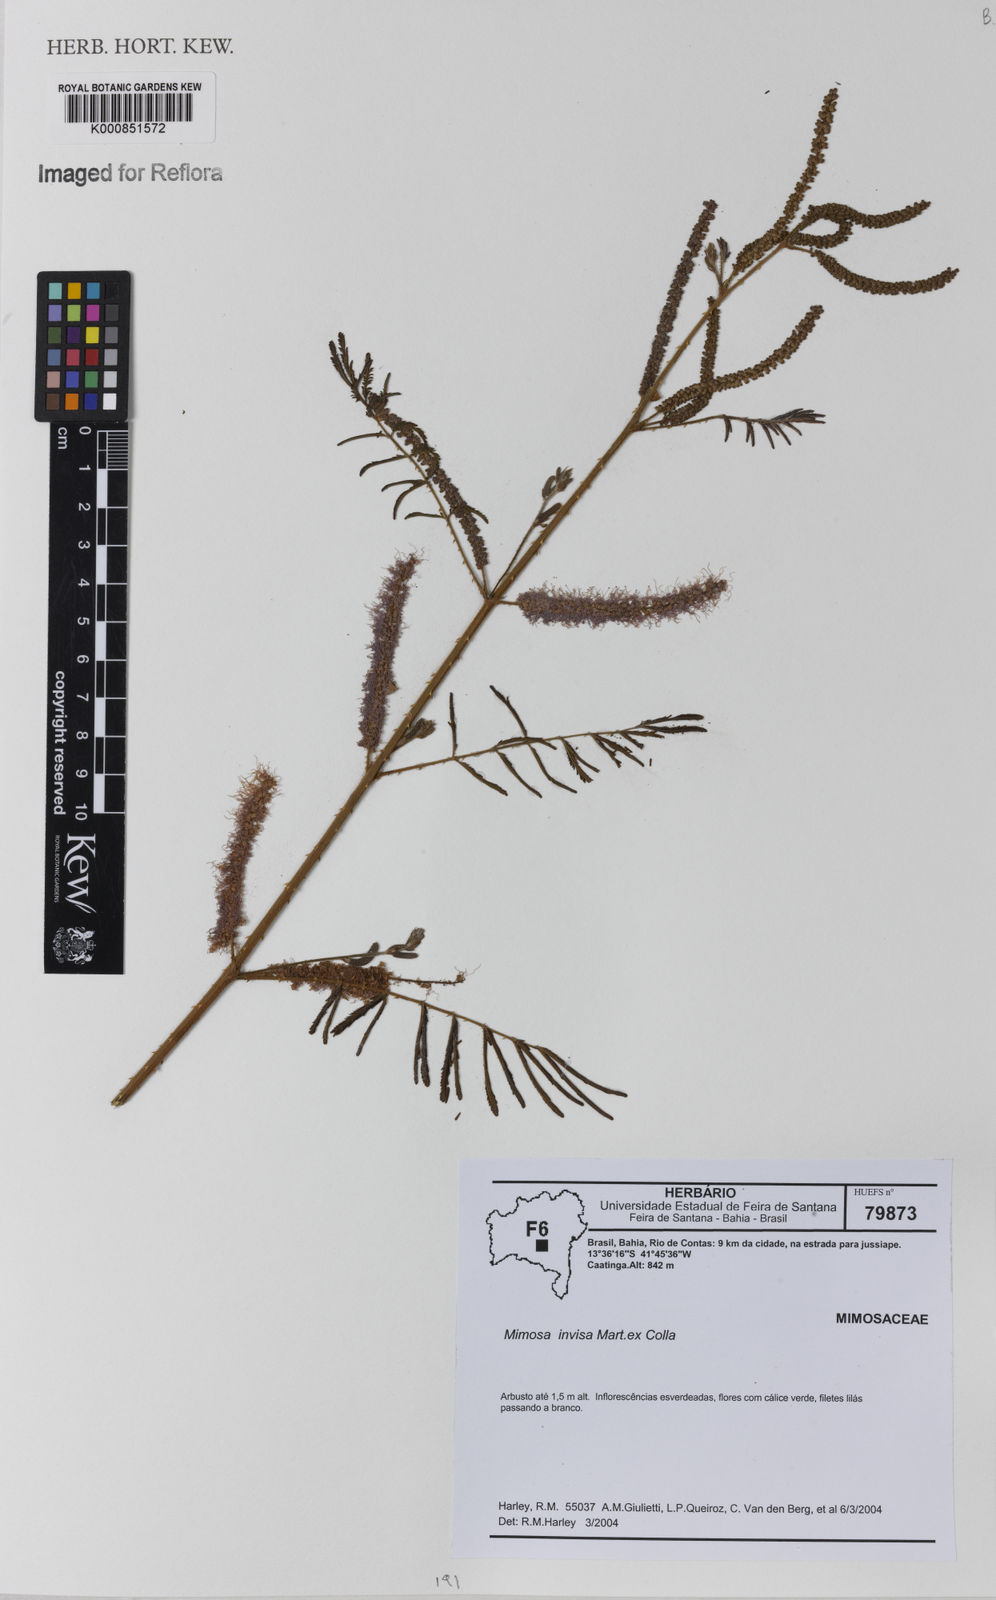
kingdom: Plantae
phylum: Tracheophyta
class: Magnoliopsida
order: Fabales
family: Fabaceae
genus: Mimosa
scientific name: Mimosa
